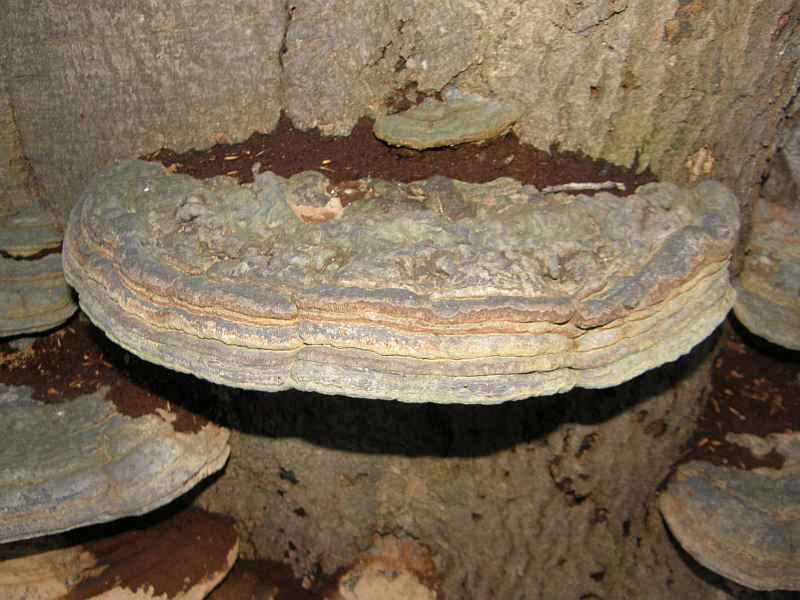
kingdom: Fungi
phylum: Basidiomycota
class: Agaricomycetes
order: Polyporales
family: Polyporaceae
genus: Ganoderma
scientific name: Ganoderma pfeifferi
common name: kobberrød lakporesvamp
